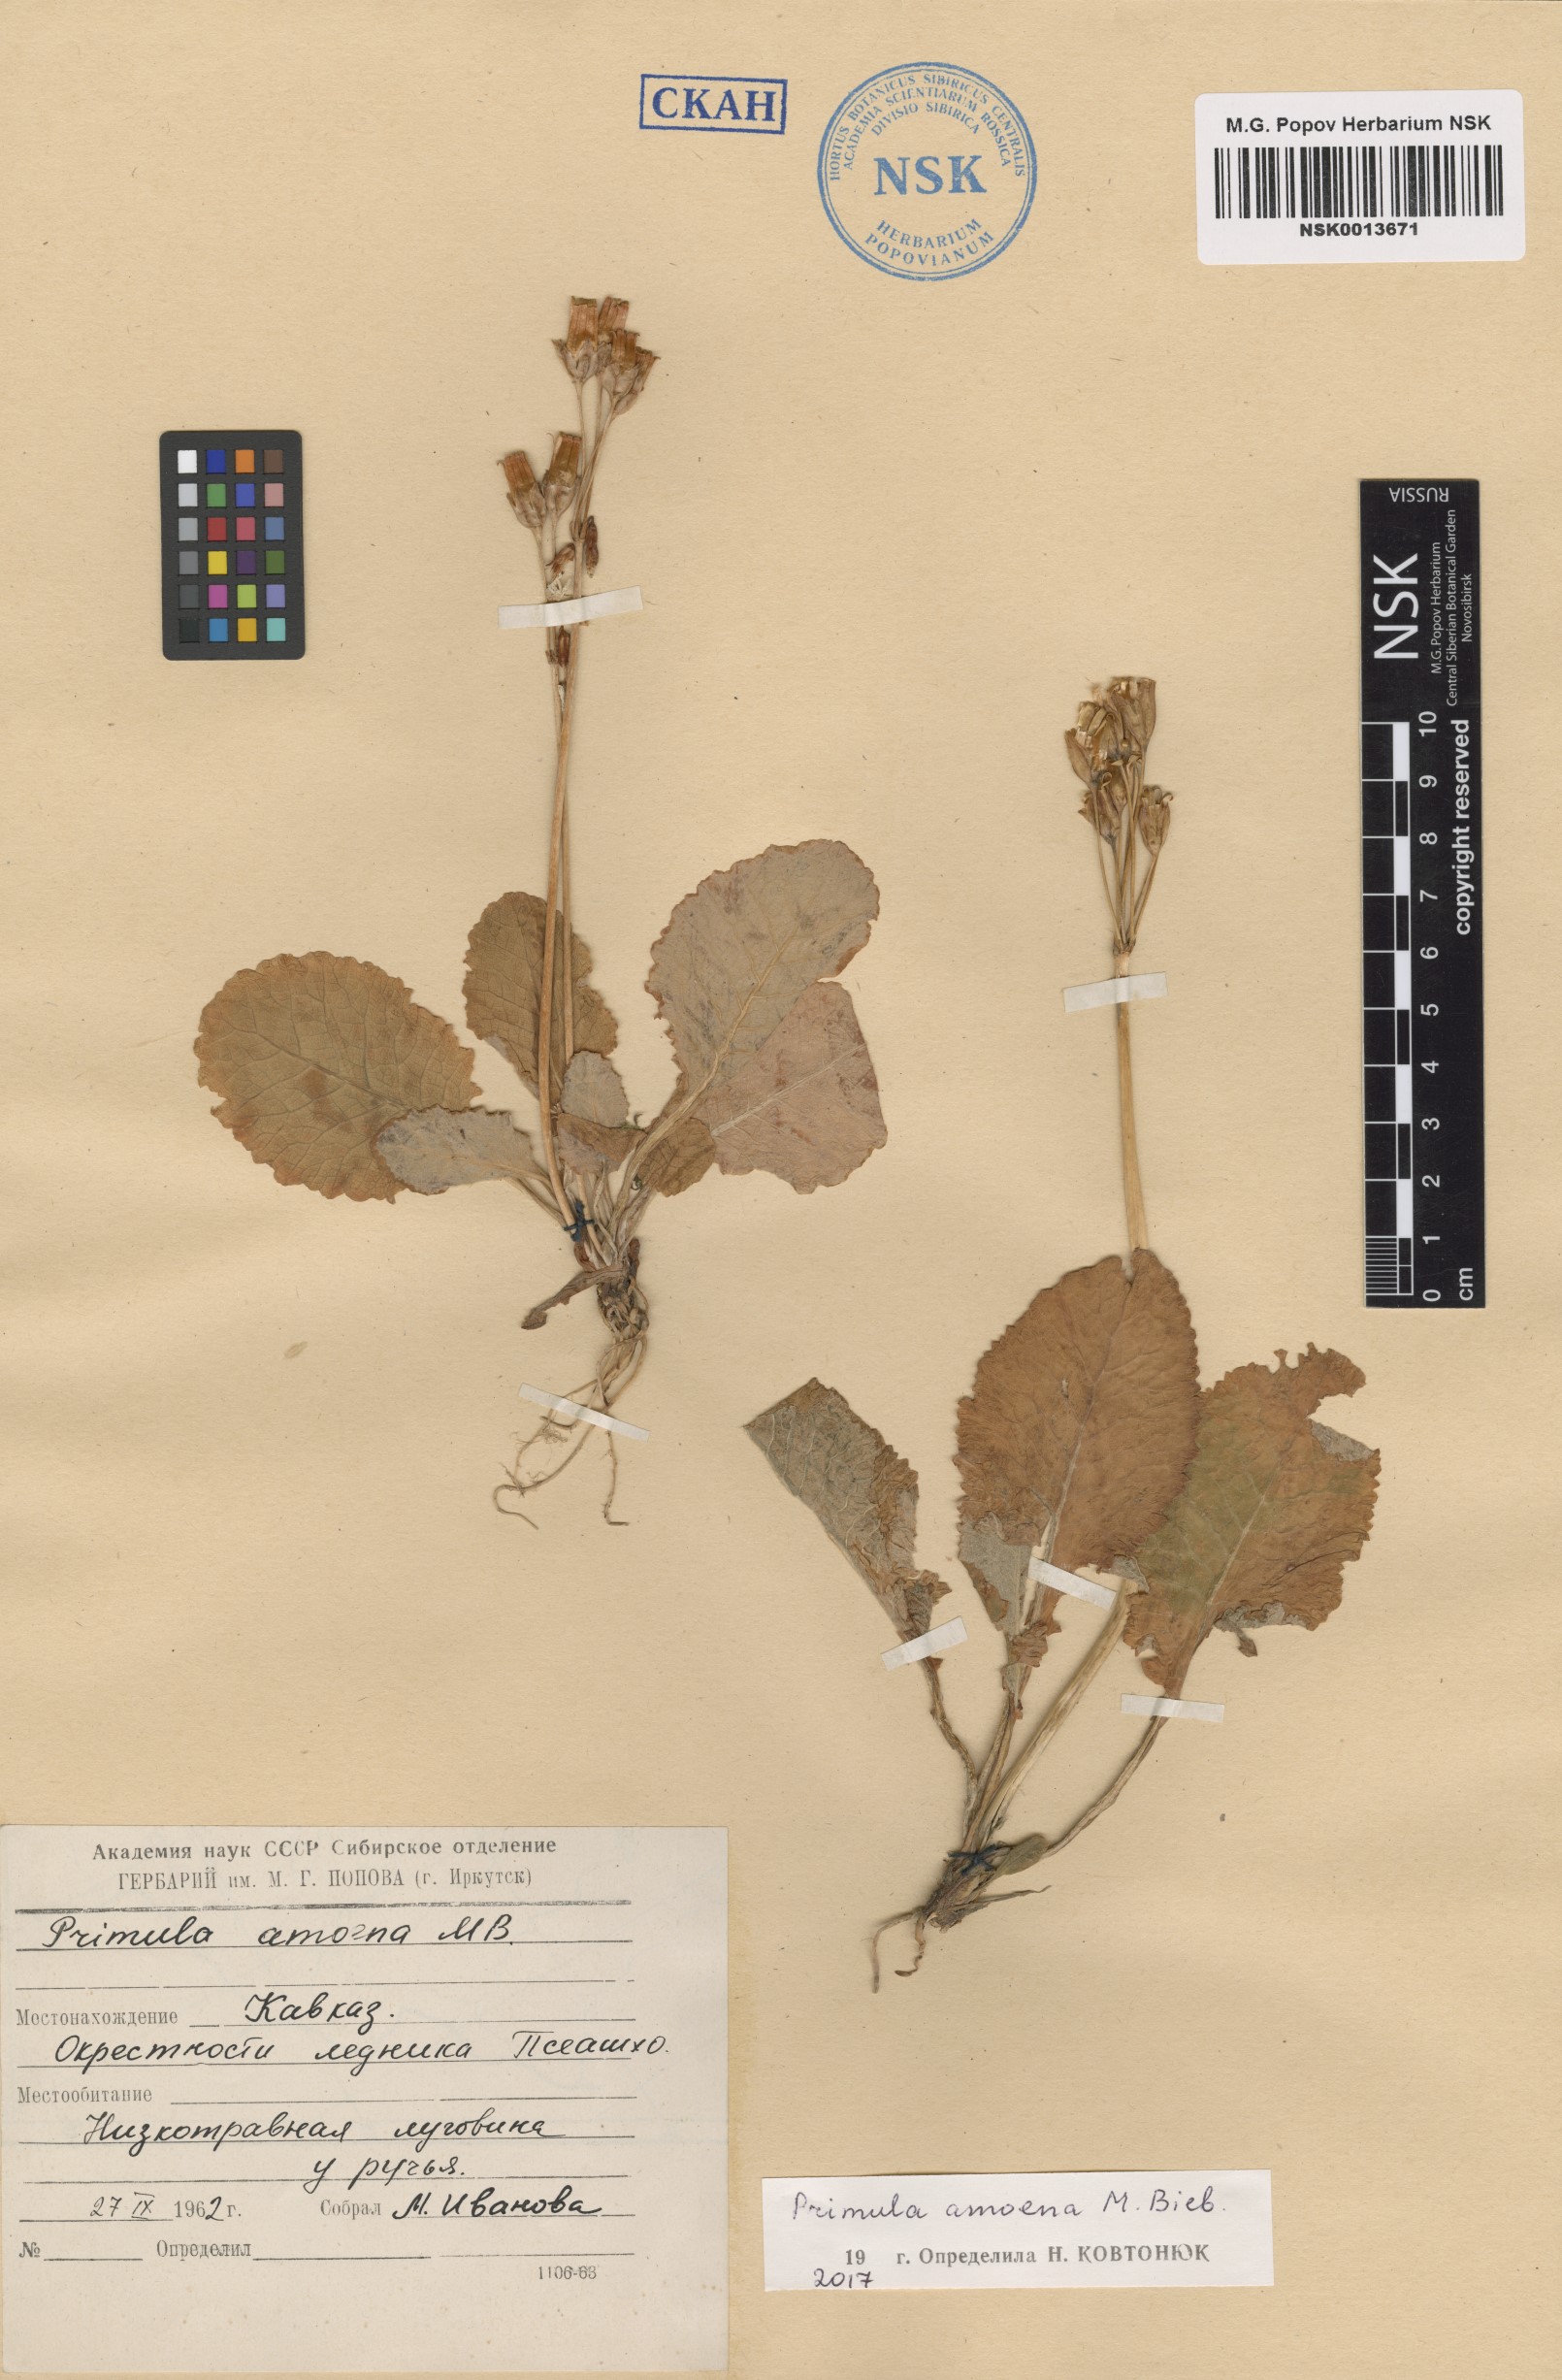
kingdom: Plantae
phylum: Tracheophyta
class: Magnoliopsida
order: Ericales
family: Primulaceae
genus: Primula
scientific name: Primula amoena
